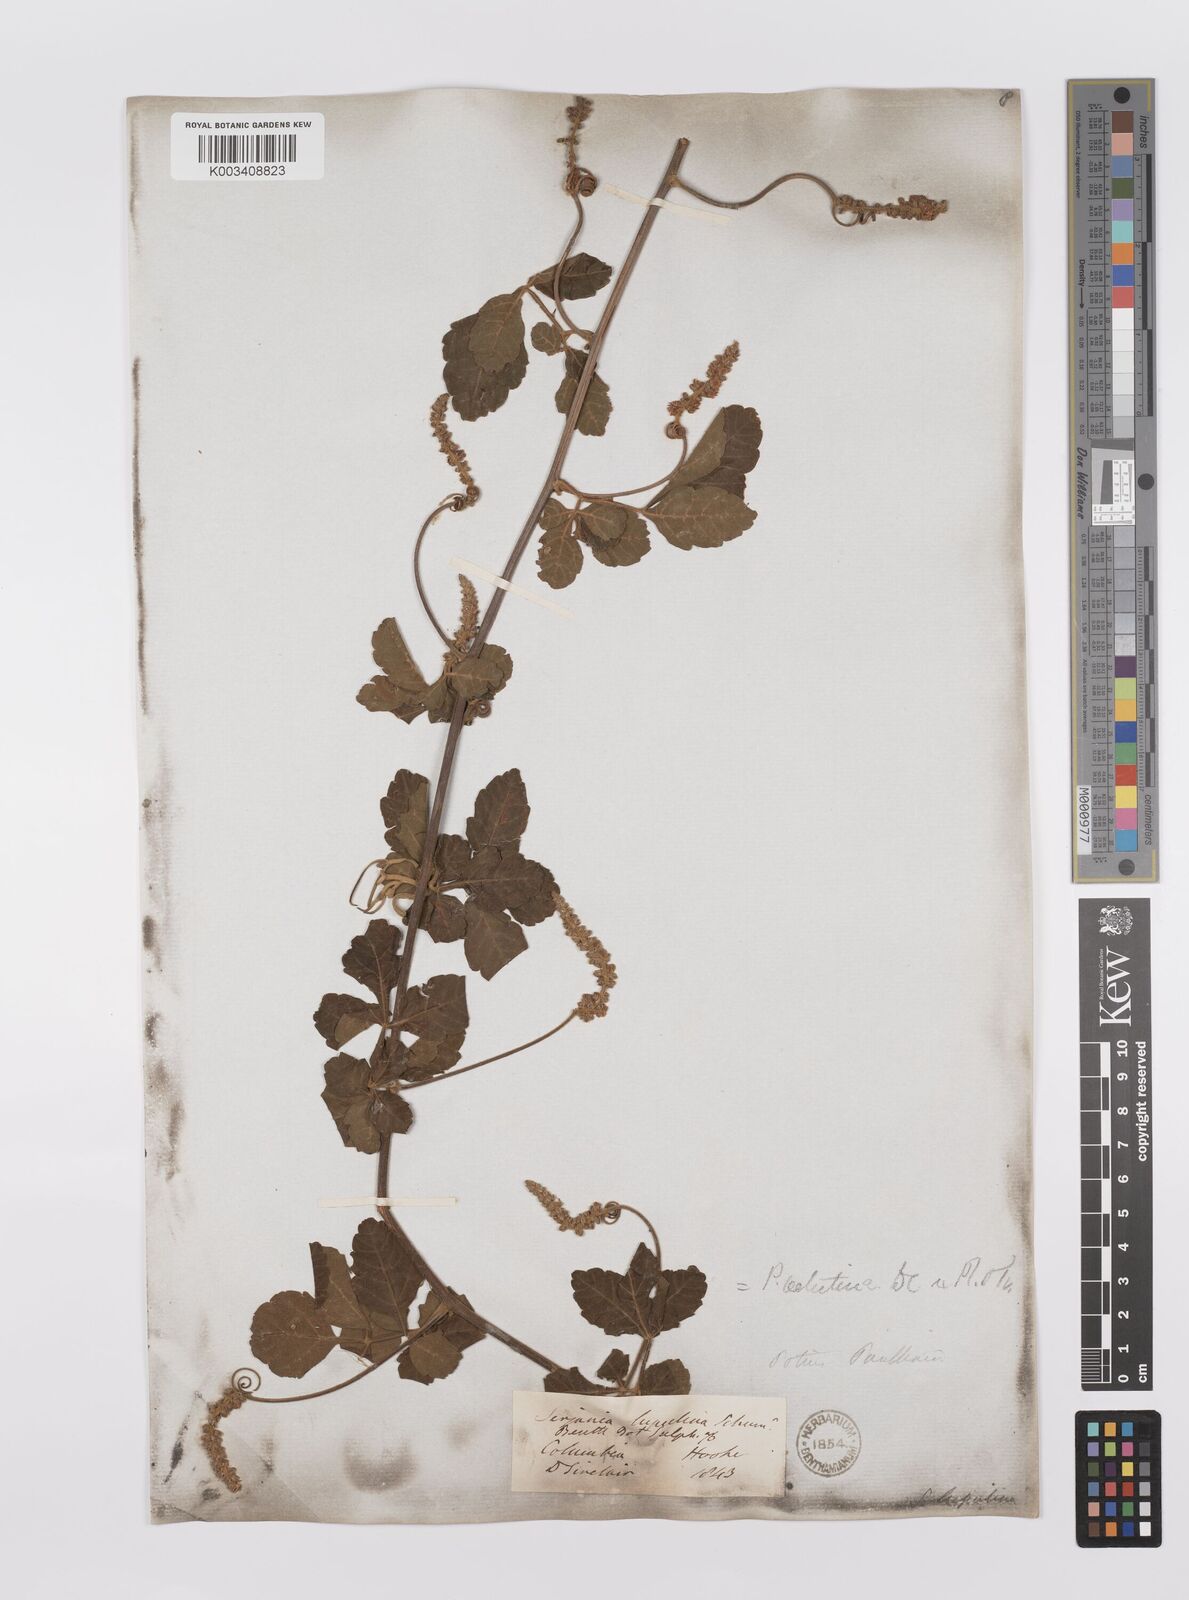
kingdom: Plantae
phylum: Tracheophyta
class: Magnoliopsida
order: Sapindales
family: Sapindaceae
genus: Paullinia
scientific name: Paullinia fuscescens
